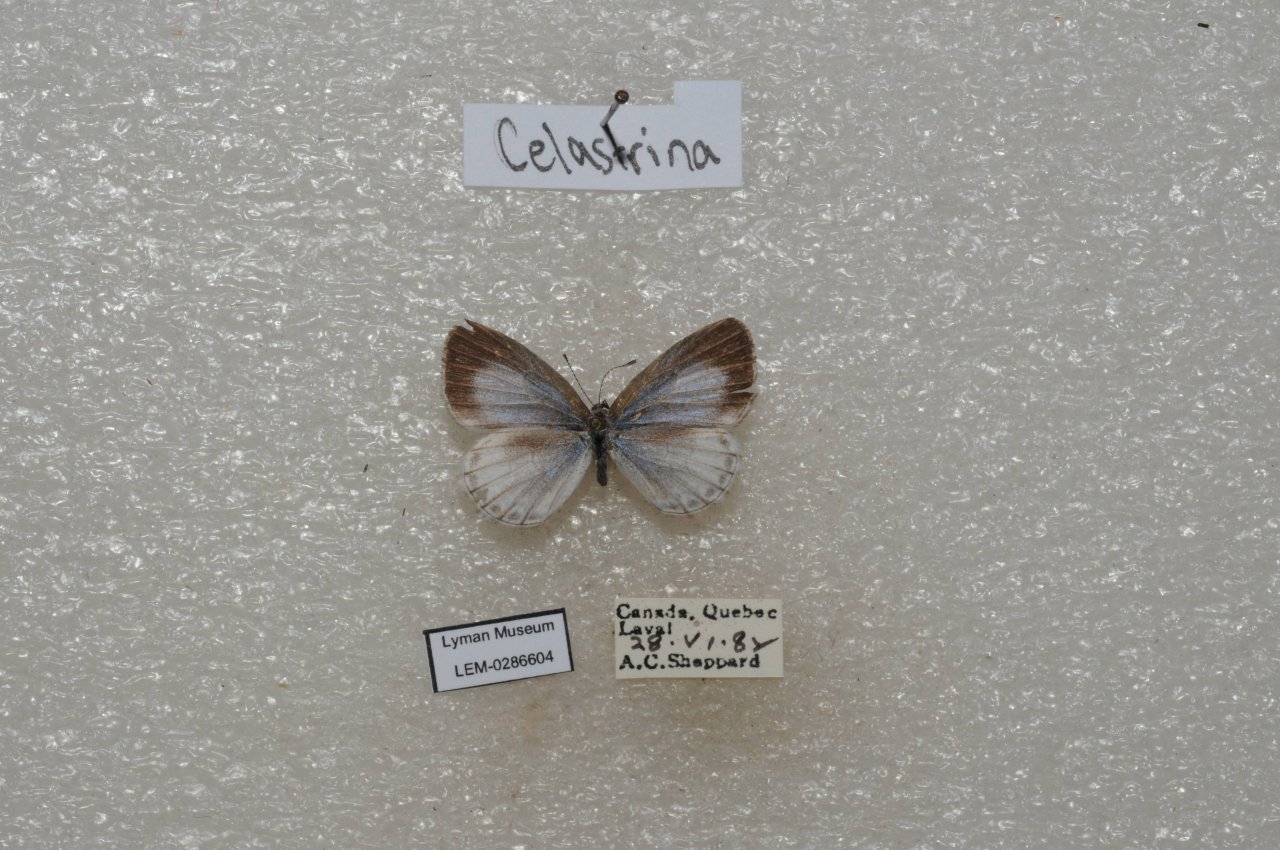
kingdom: Animalia
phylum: Arthropoda
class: Insecta
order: Lepidoptera
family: Lycaenidae
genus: Celastrina
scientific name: Celastrina lucia
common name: Northern Spring Azure
